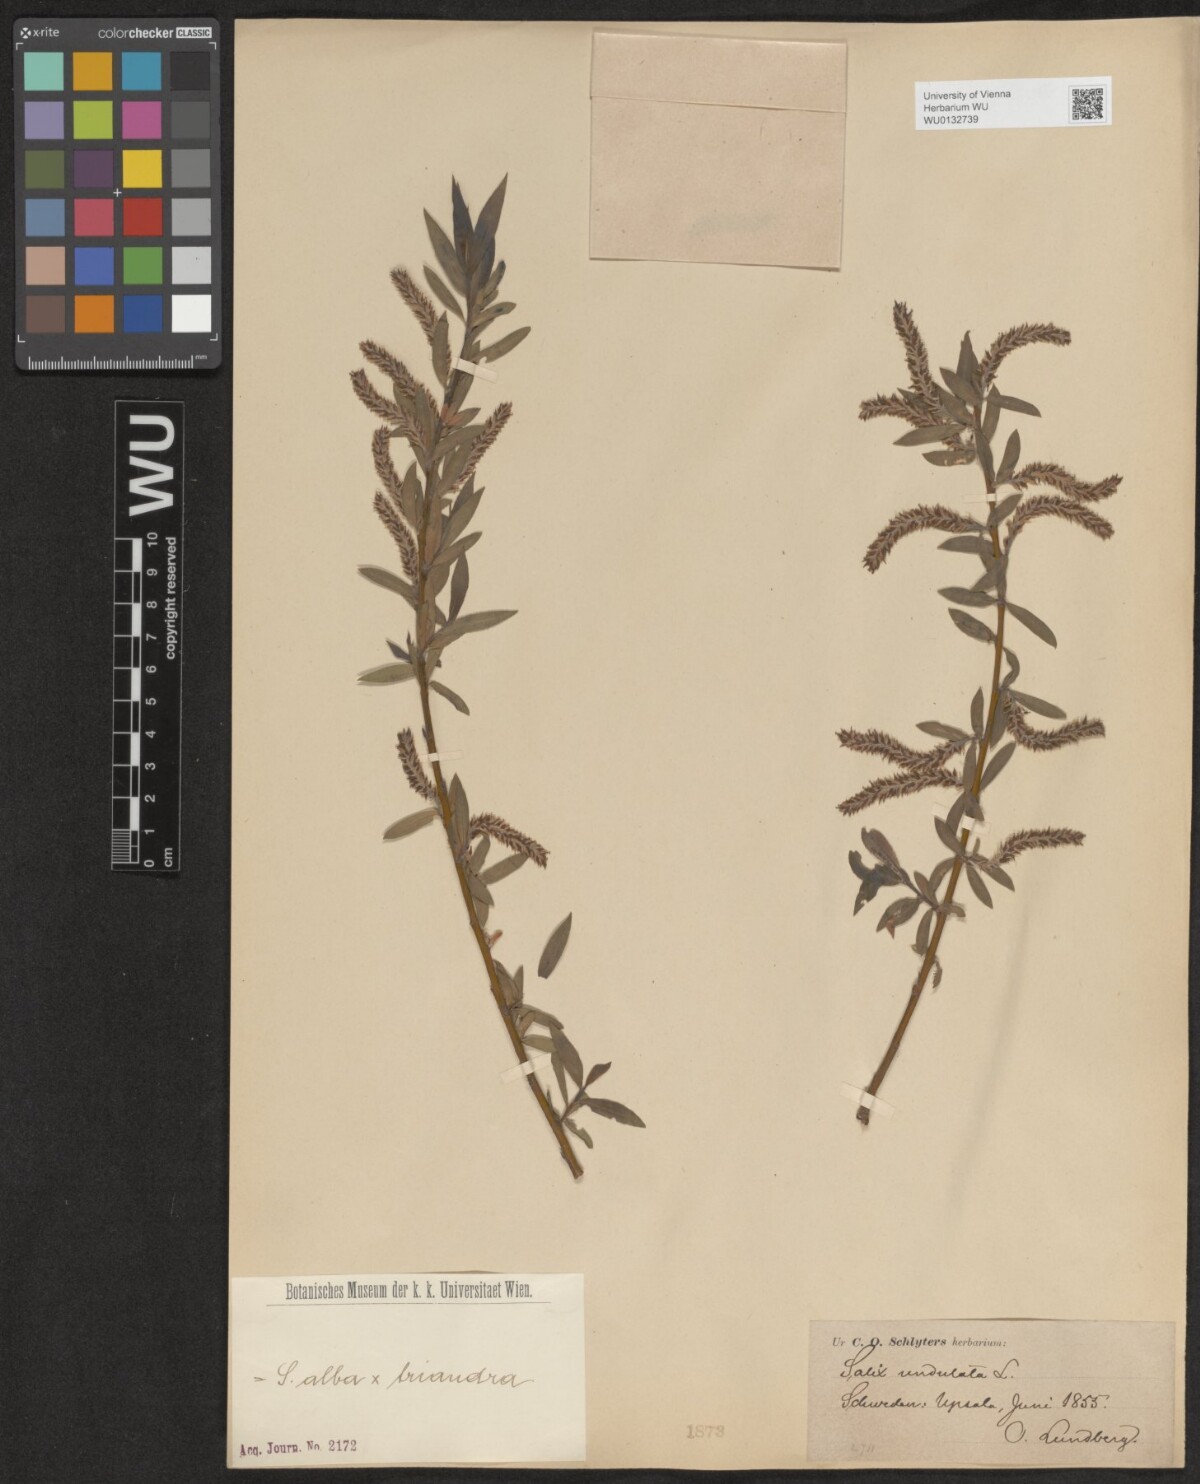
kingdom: Plantae
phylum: Tracheophyta
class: Magnoliopsida
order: Malpighiales
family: Salicaceae
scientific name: Salicaceae
